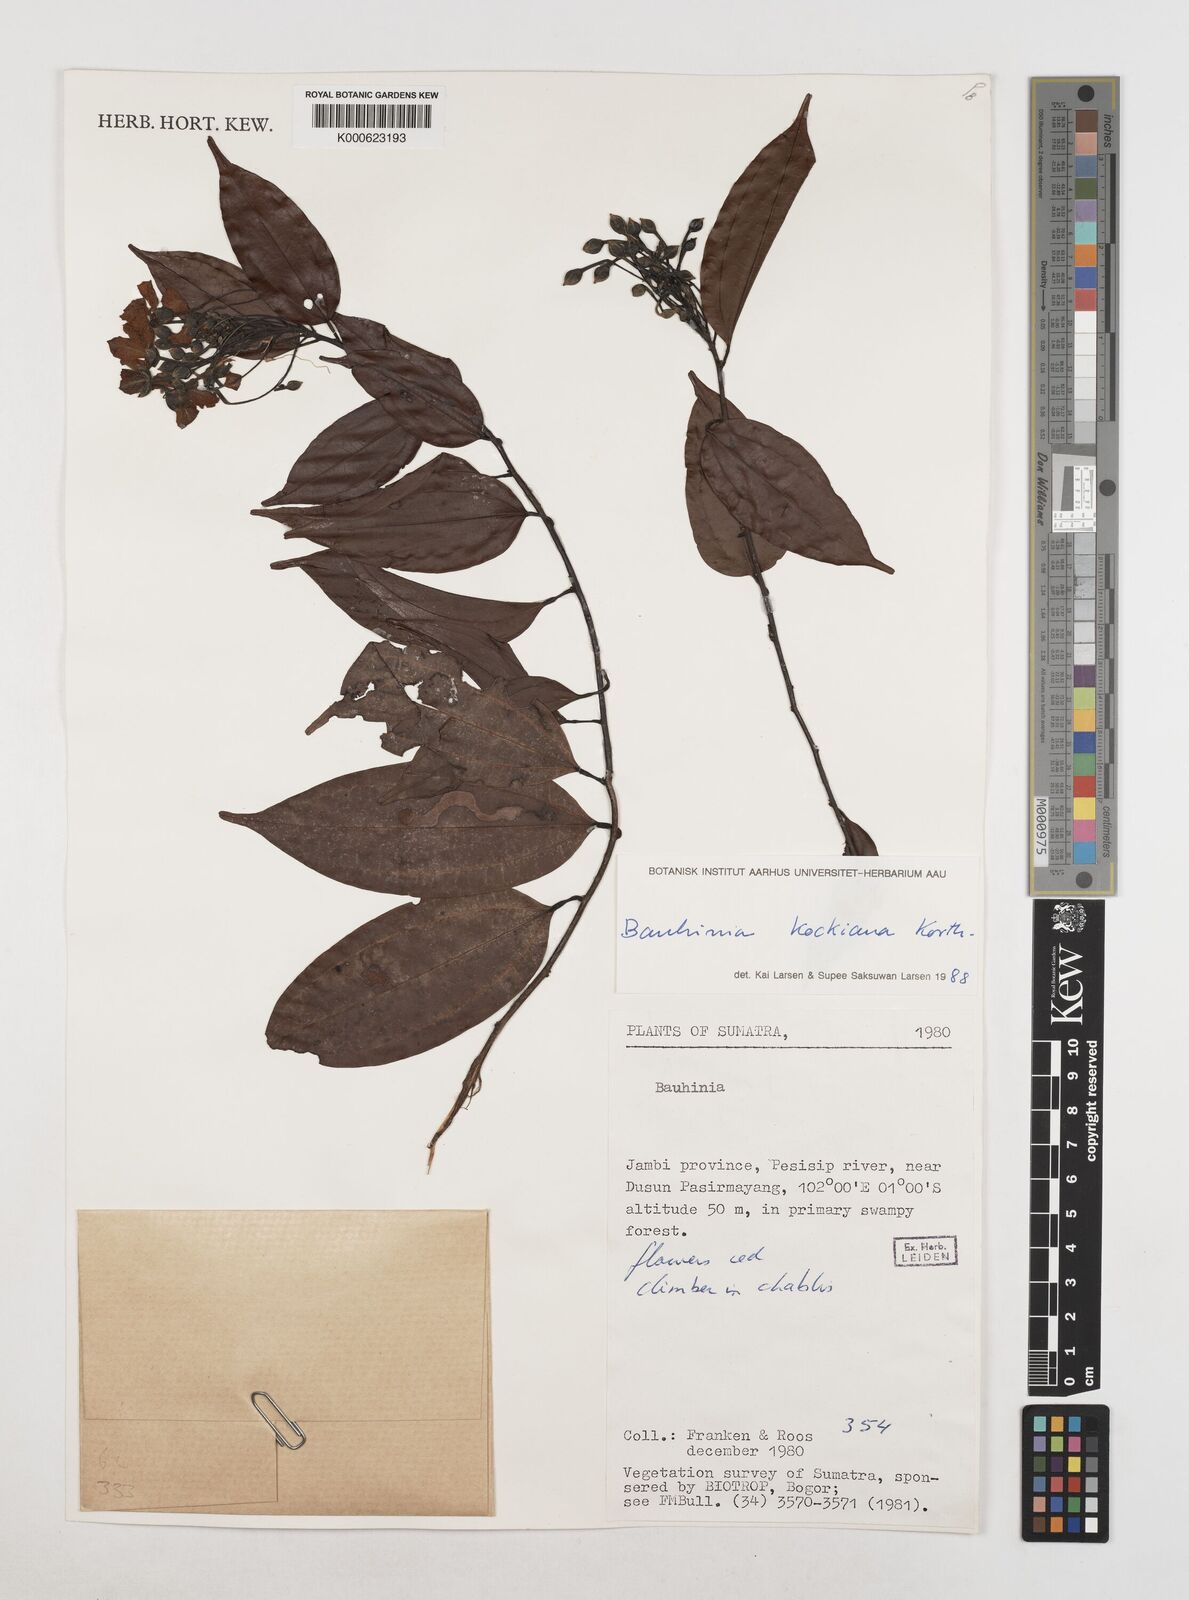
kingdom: Plantae
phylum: Tracheophyta
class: Magnoliopsida
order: Fabales
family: Fabaceae
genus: Phanera
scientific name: Phanera kockiana
